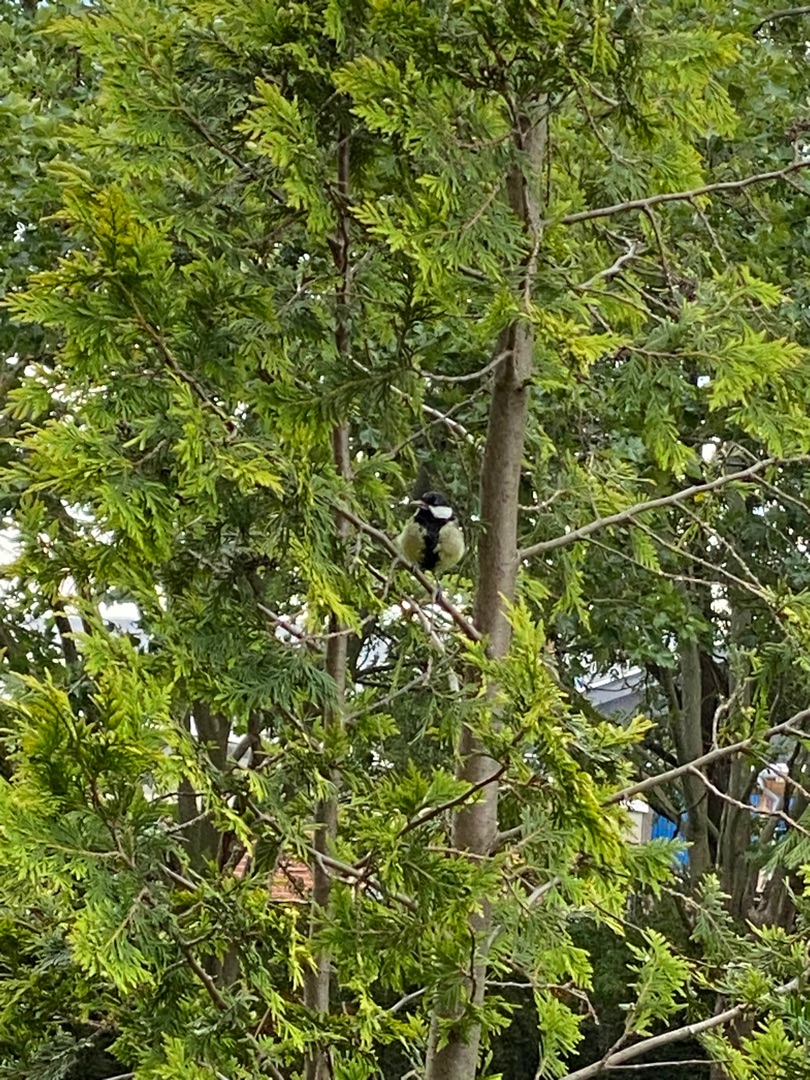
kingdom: Animalia
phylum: Chordata
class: Aves
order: Passeriformes
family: Paridae
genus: Parus
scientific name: Parus major
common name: Musvit
